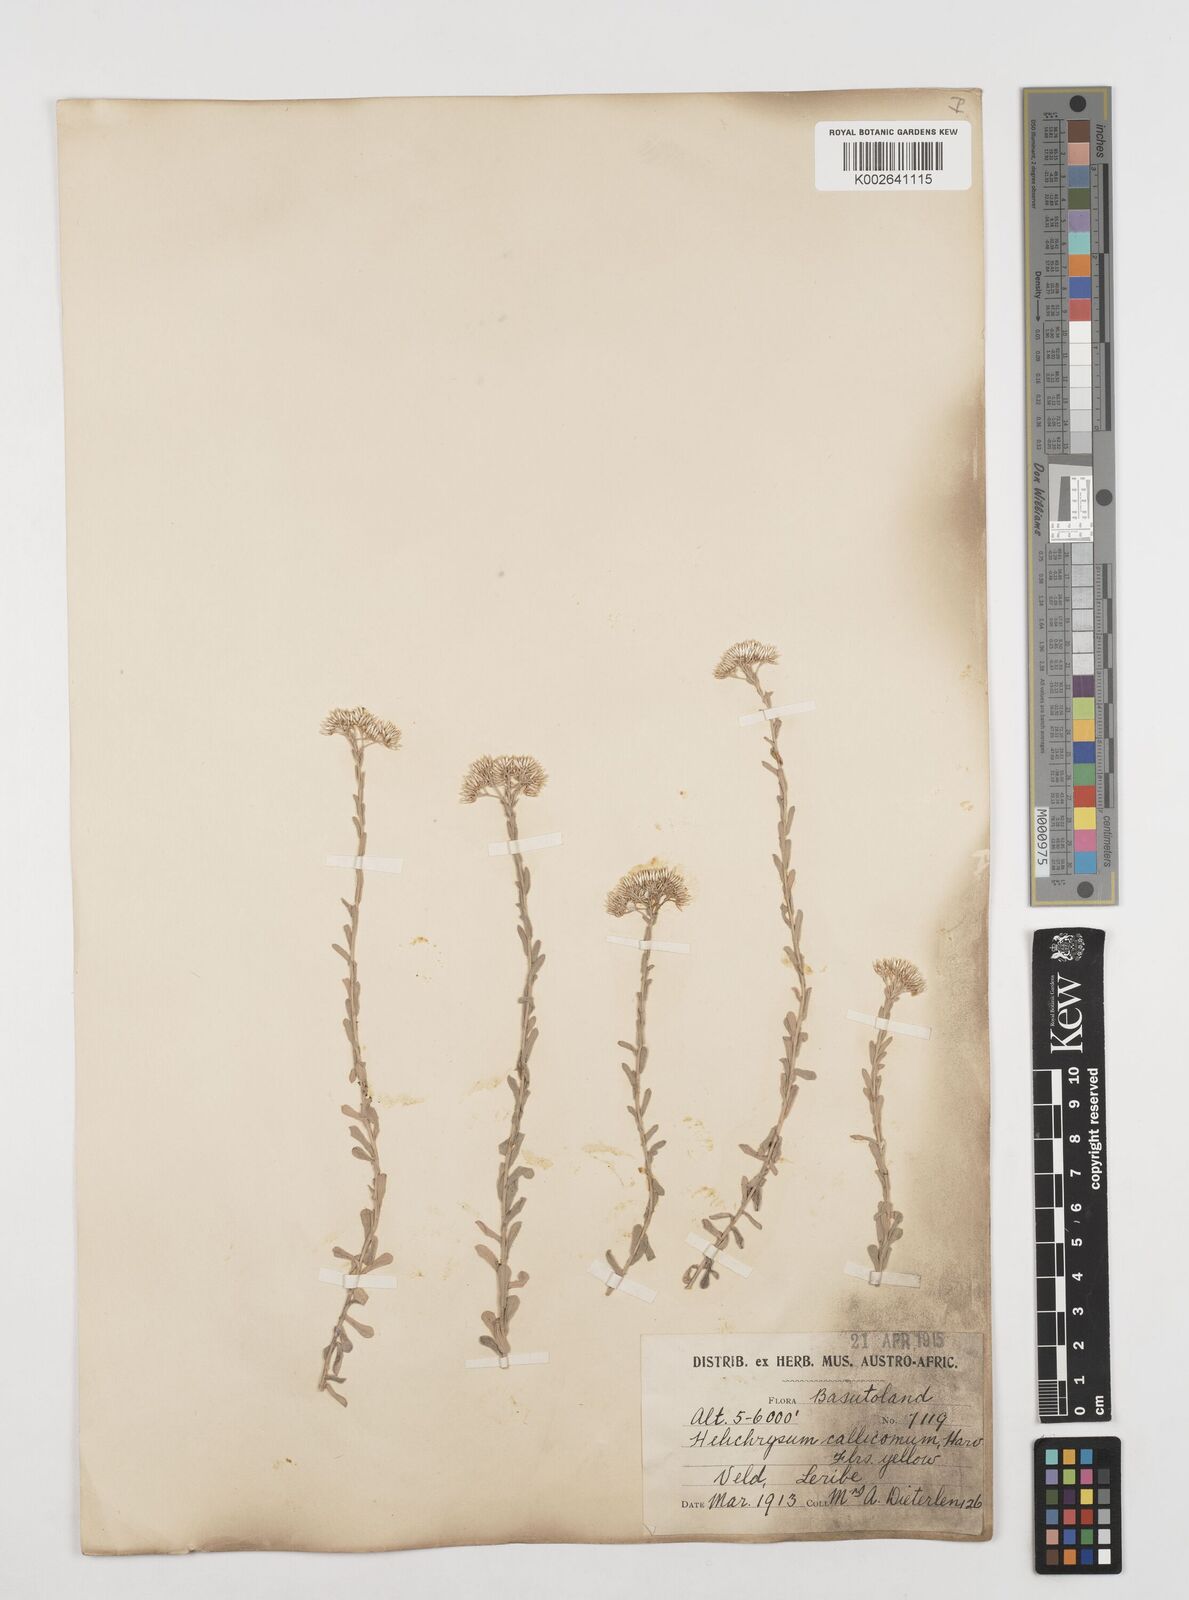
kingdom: Plantae
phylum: Tracheophyta
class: Magnoliopsida
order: Asterales
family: Asteraceae
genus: Helichrysum
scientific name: Helichrysum callicomum
